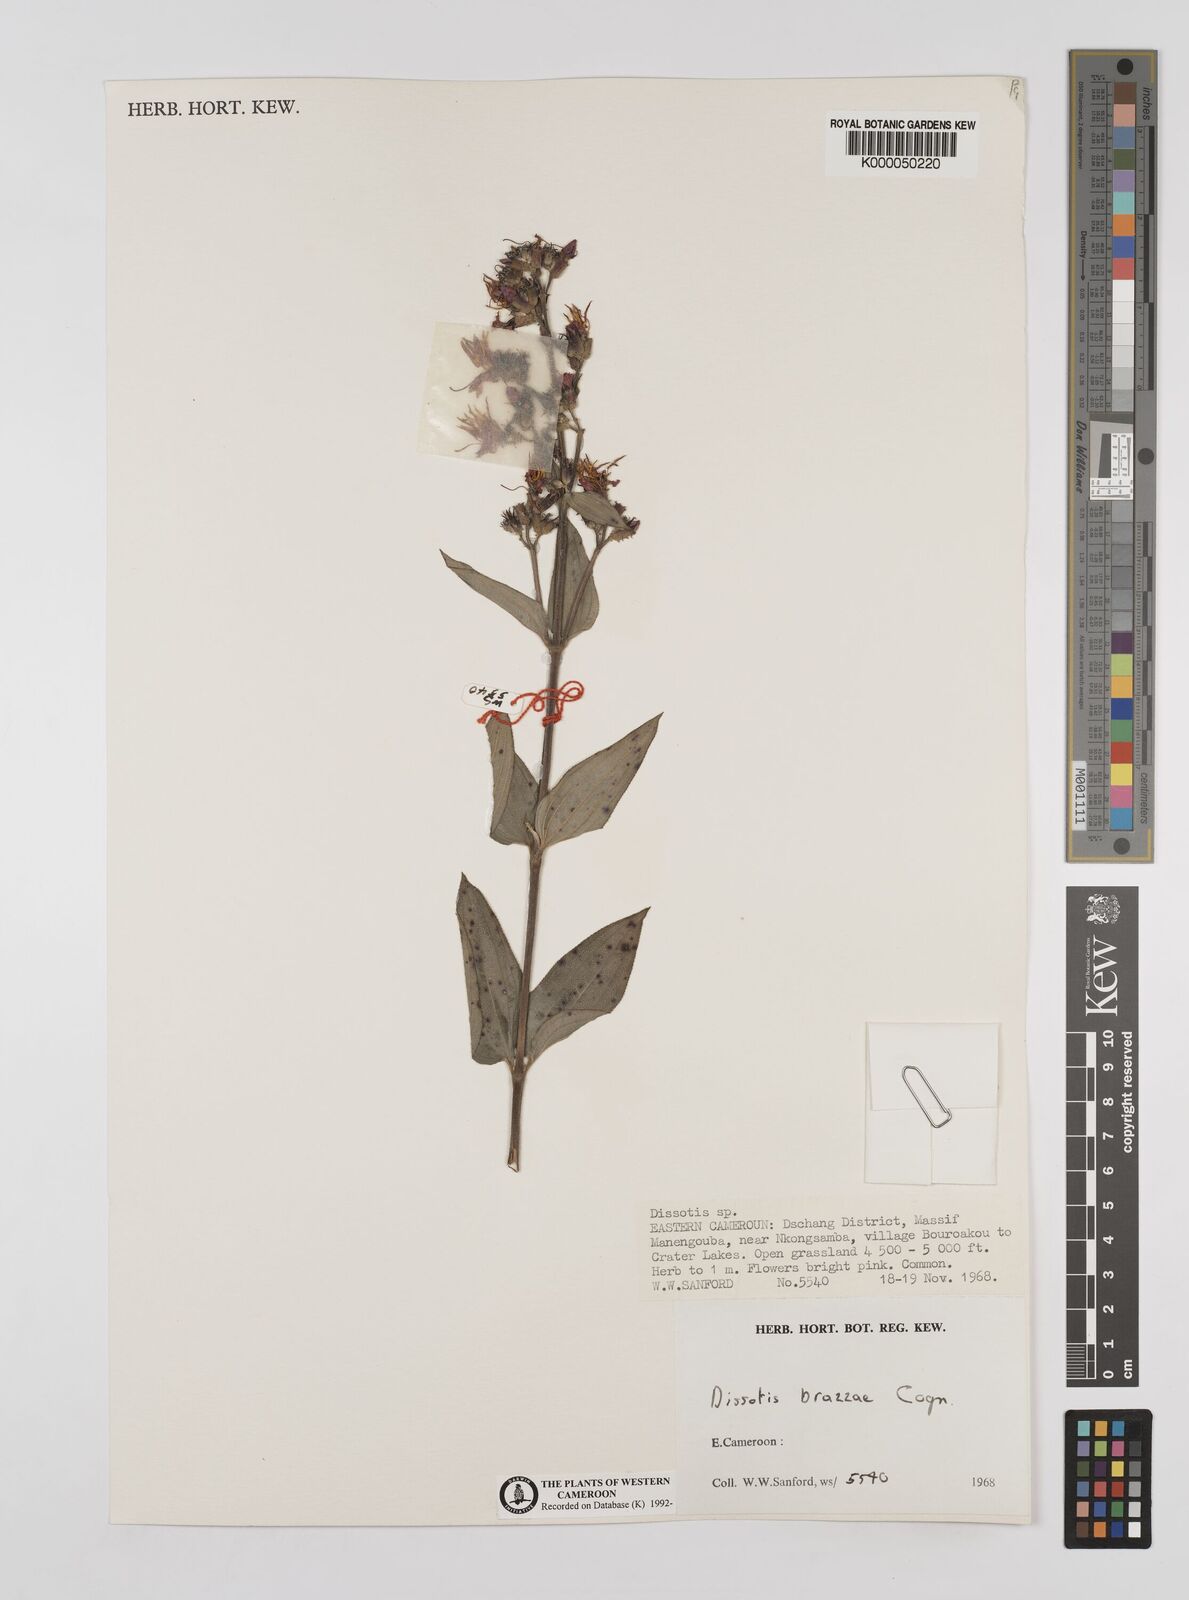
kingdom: Plantae
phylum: Tracheophyta
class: Magnoliopsida
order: Myrtales
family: Melastomataceae
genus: Dupineta
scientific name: Dupineta brazzae
